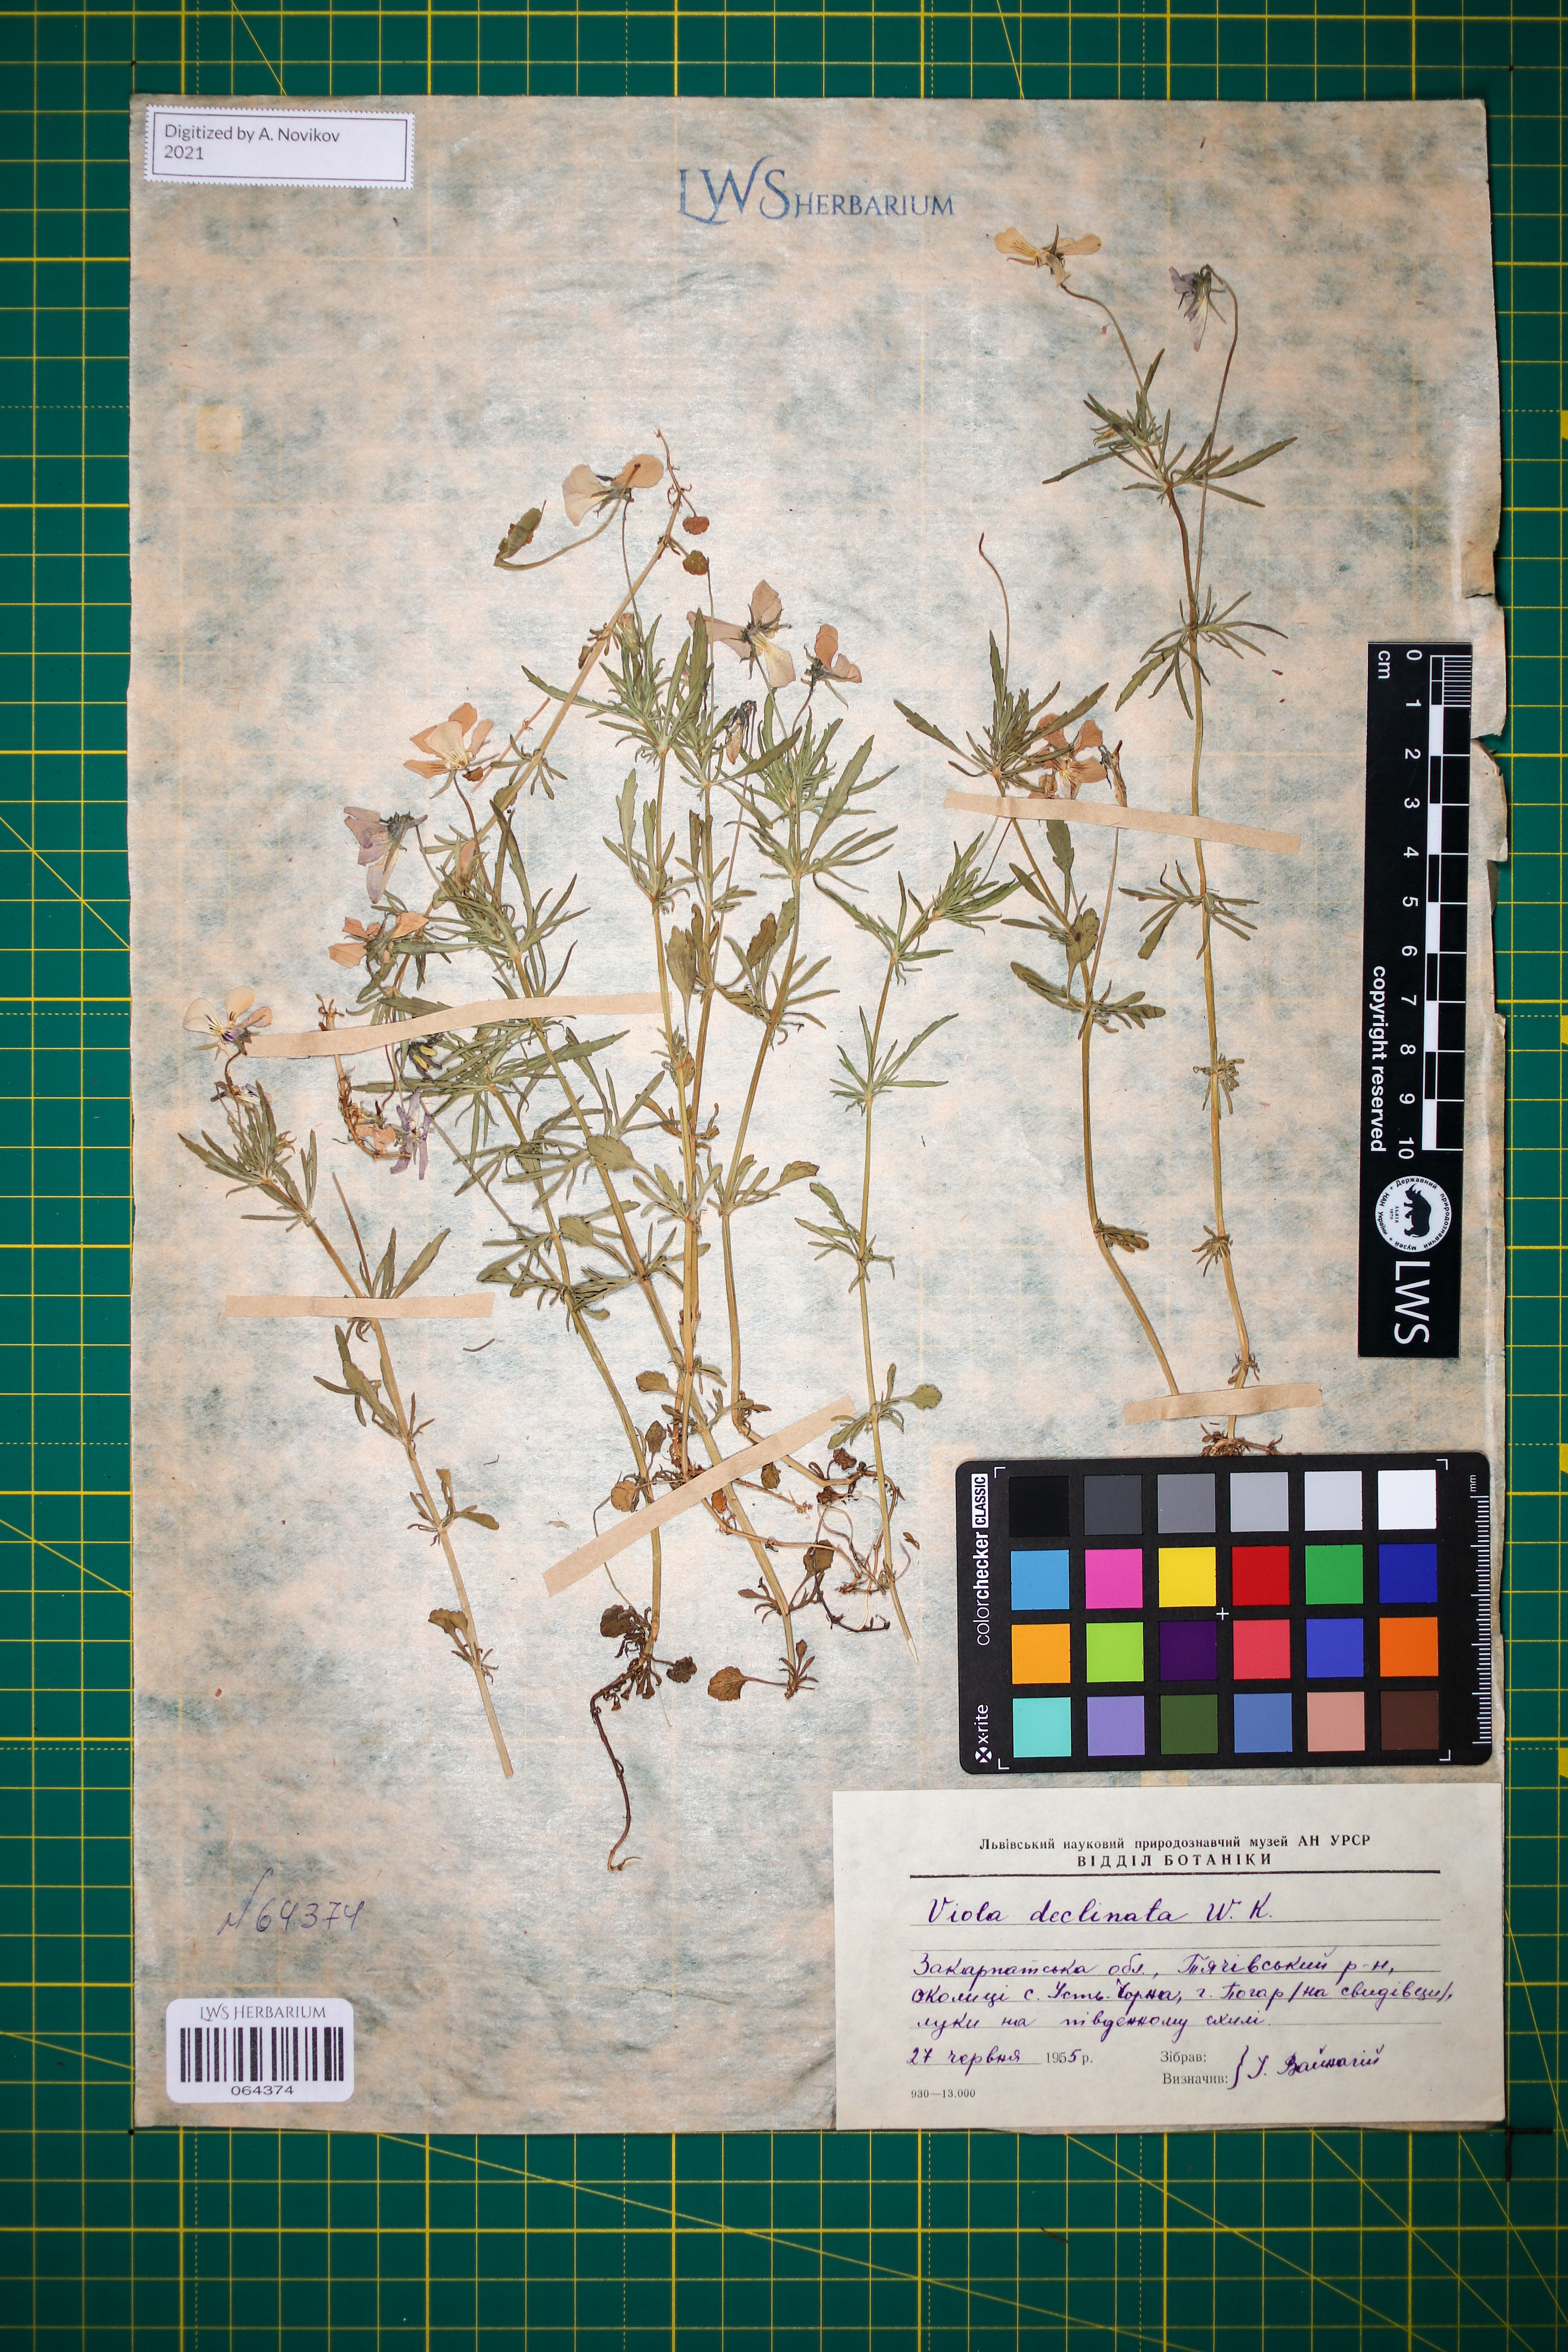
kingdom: Plantae
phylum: Tracheophyta
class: Magnoliopsida
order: Malpighiales
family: Violaceae
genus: Viola
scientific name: Viola declinata
